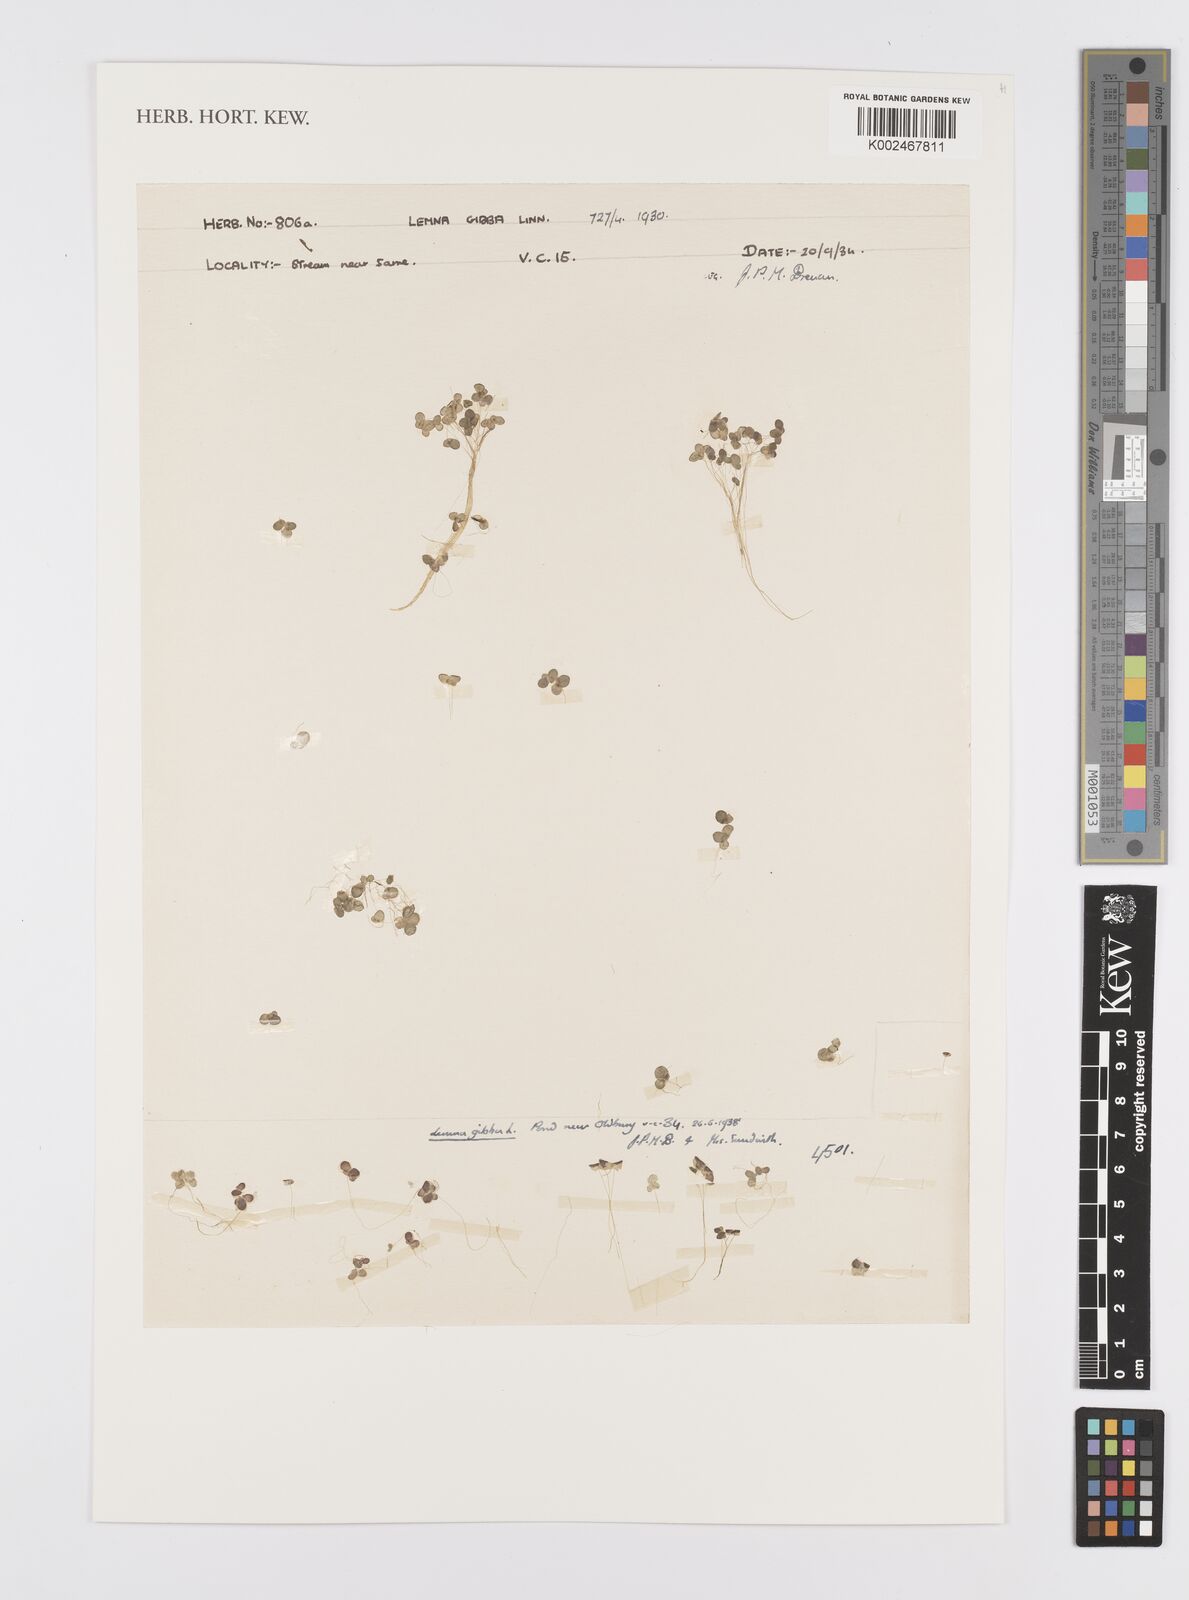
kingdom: Plantae
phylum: Tracheophyta
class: Liliopsida
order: Alismatales
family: Araceae
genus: Lemna
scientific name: Lemna gibba
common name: Fat duckweed
